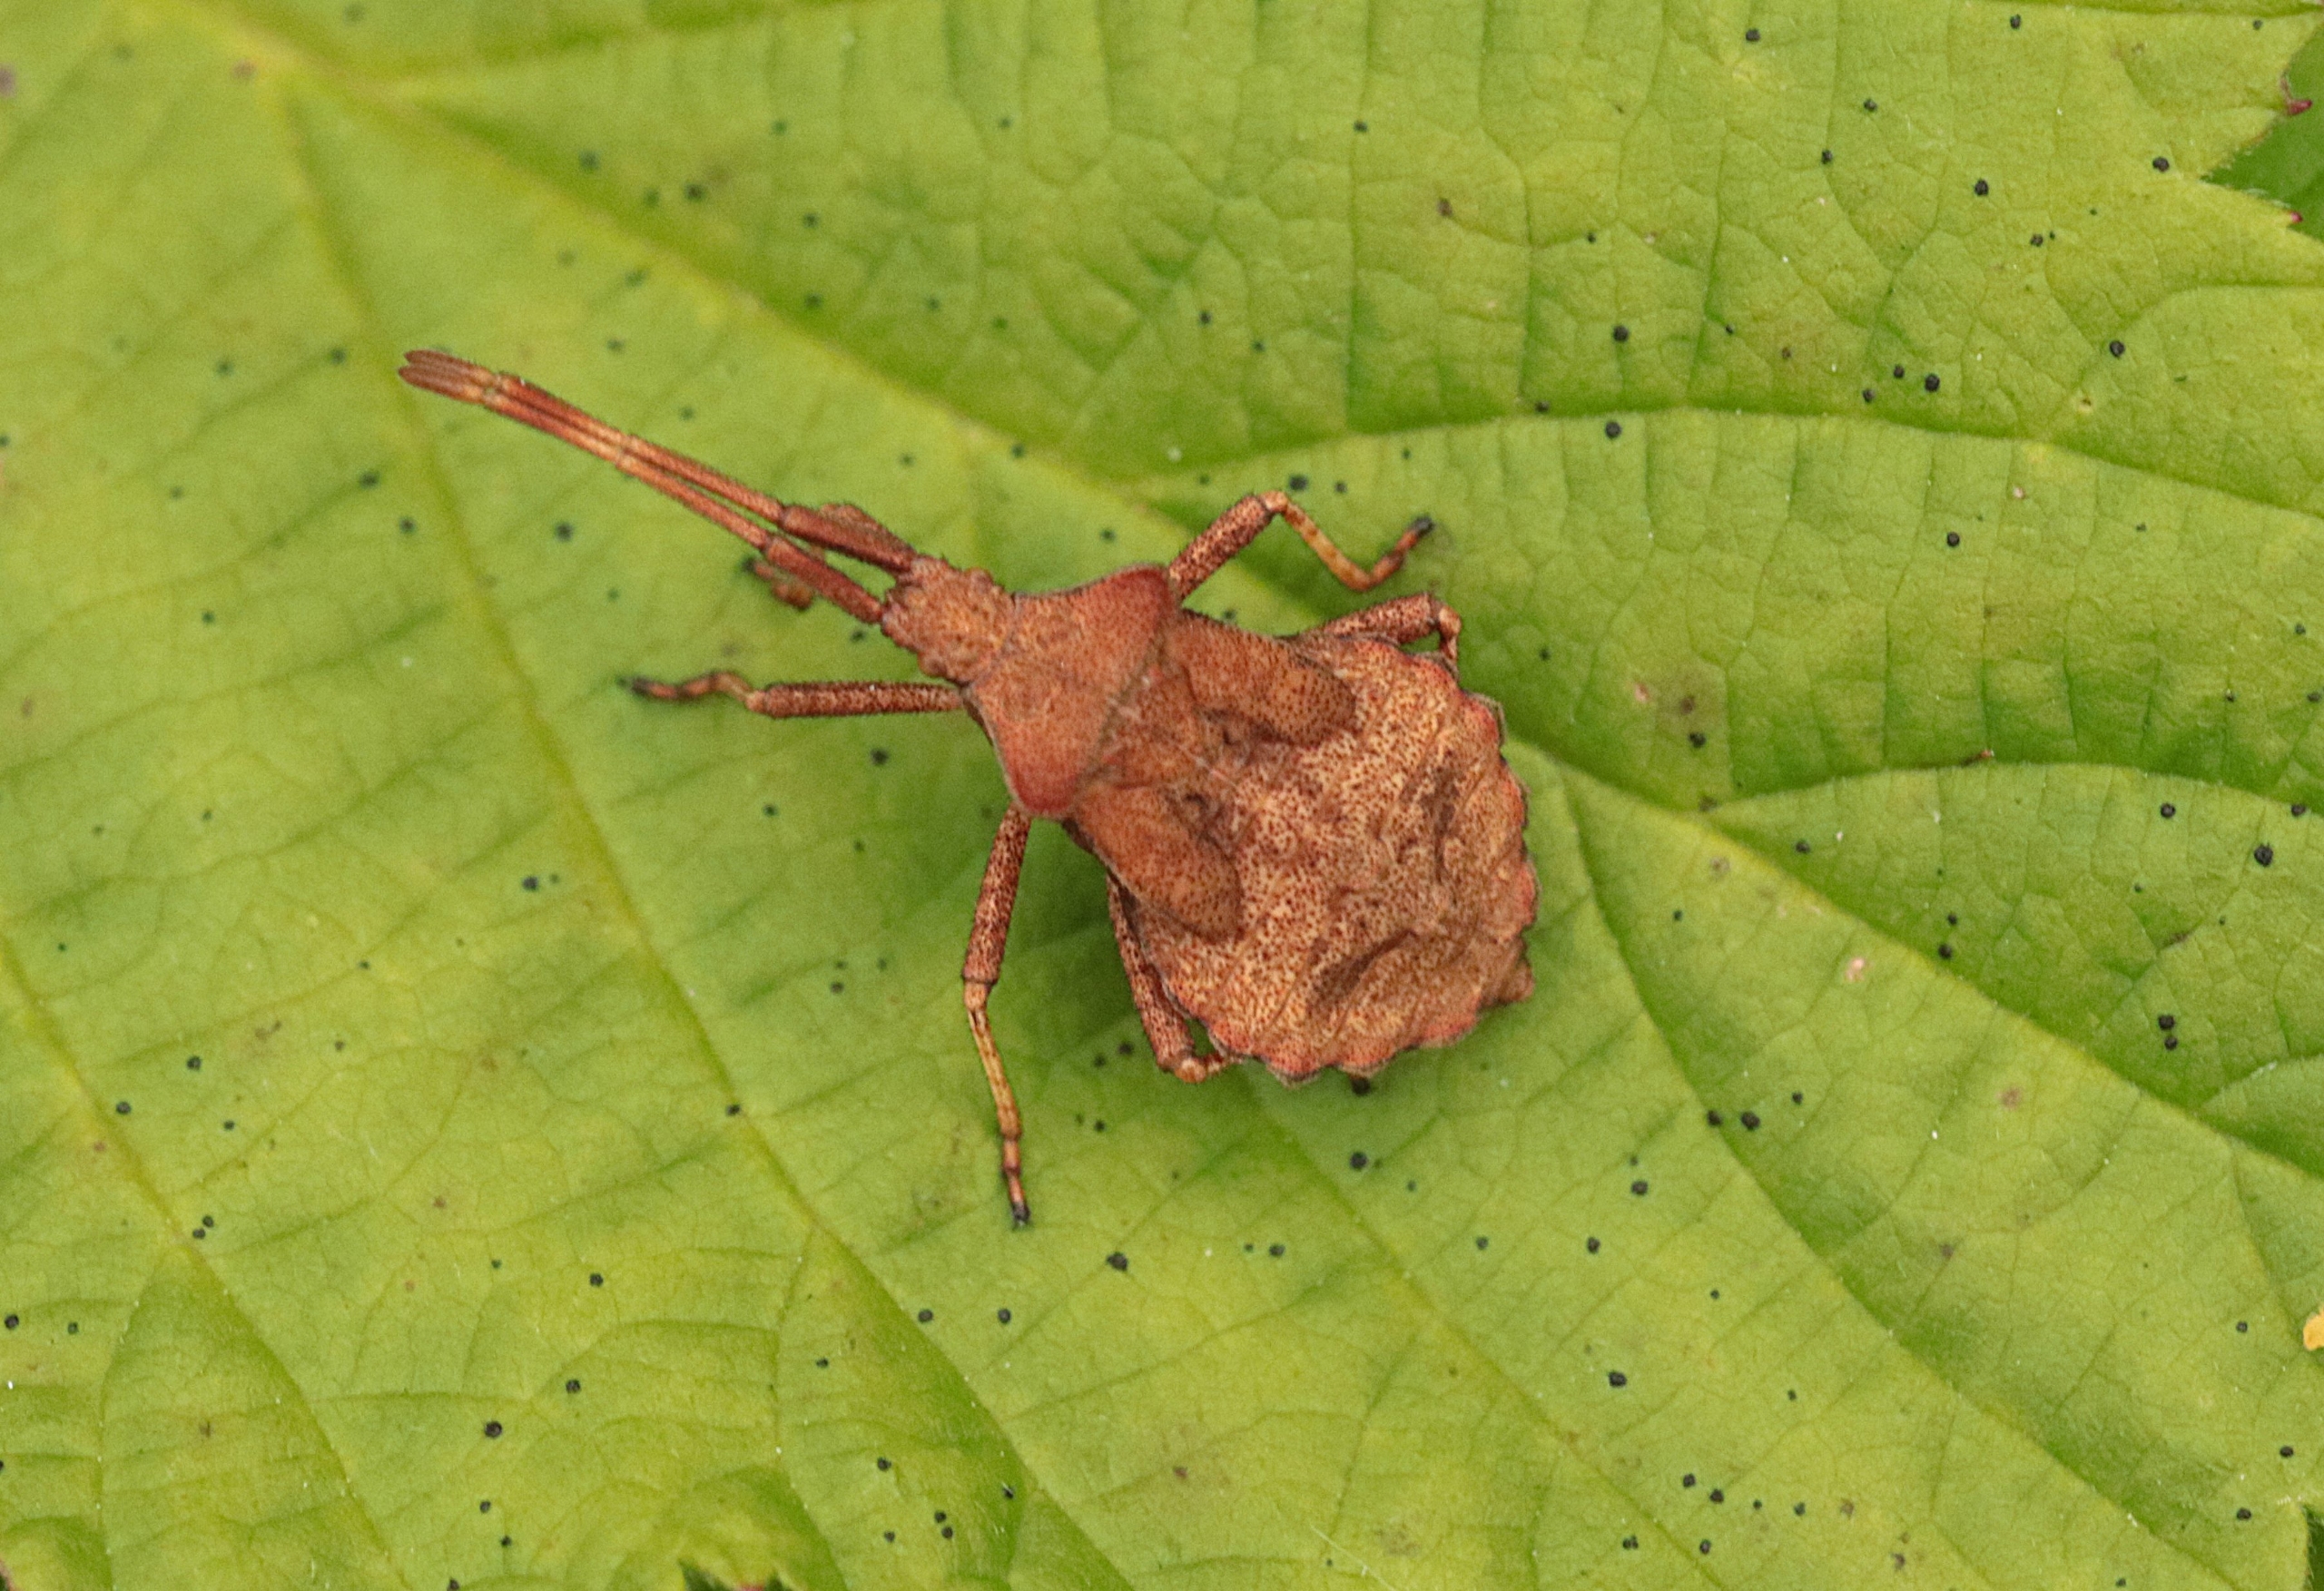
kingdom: Animalia
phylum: Arthropoda
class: Insecta
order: Hemiptera
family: Coreidae
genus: Coreus
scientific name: Coreus marginatus
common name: Skræppetæge
